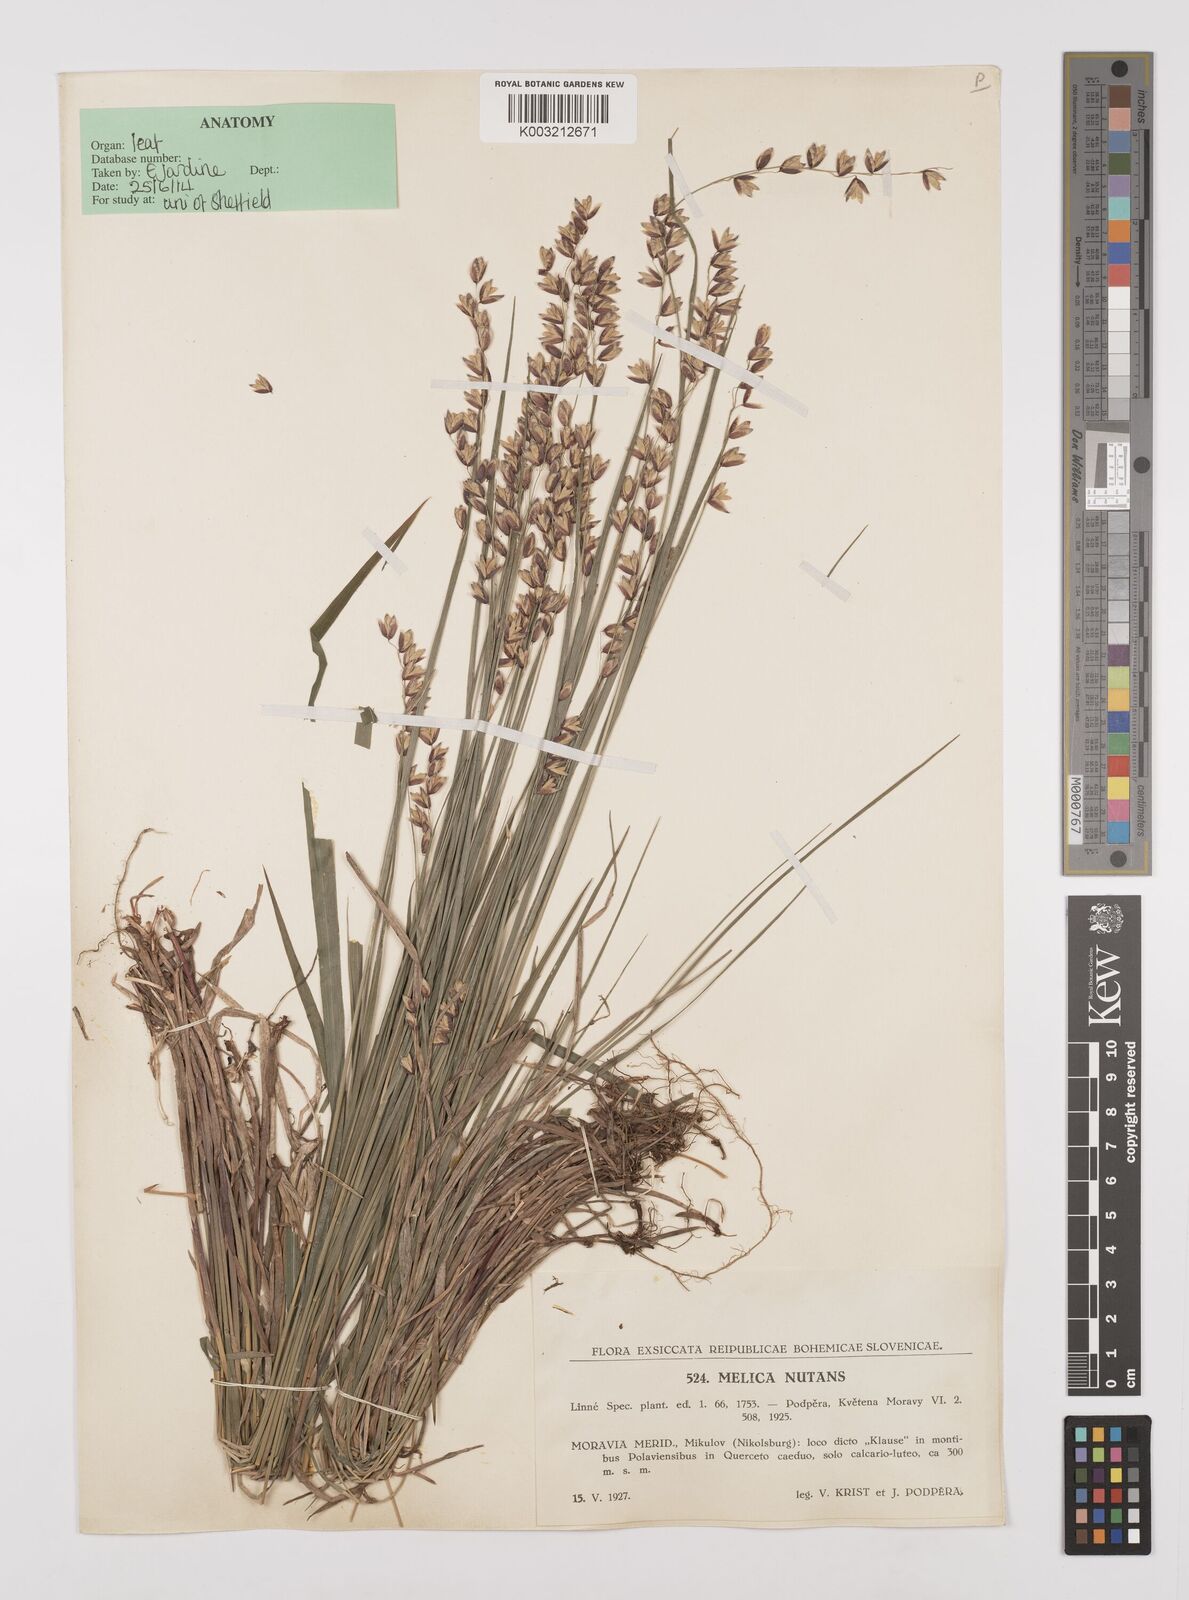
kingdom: Plantae
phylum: Tracheophyta
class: Liliopsida
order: Poales
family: Poaceae
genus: Melica
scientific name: Melica nutans
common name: Mountain melick
